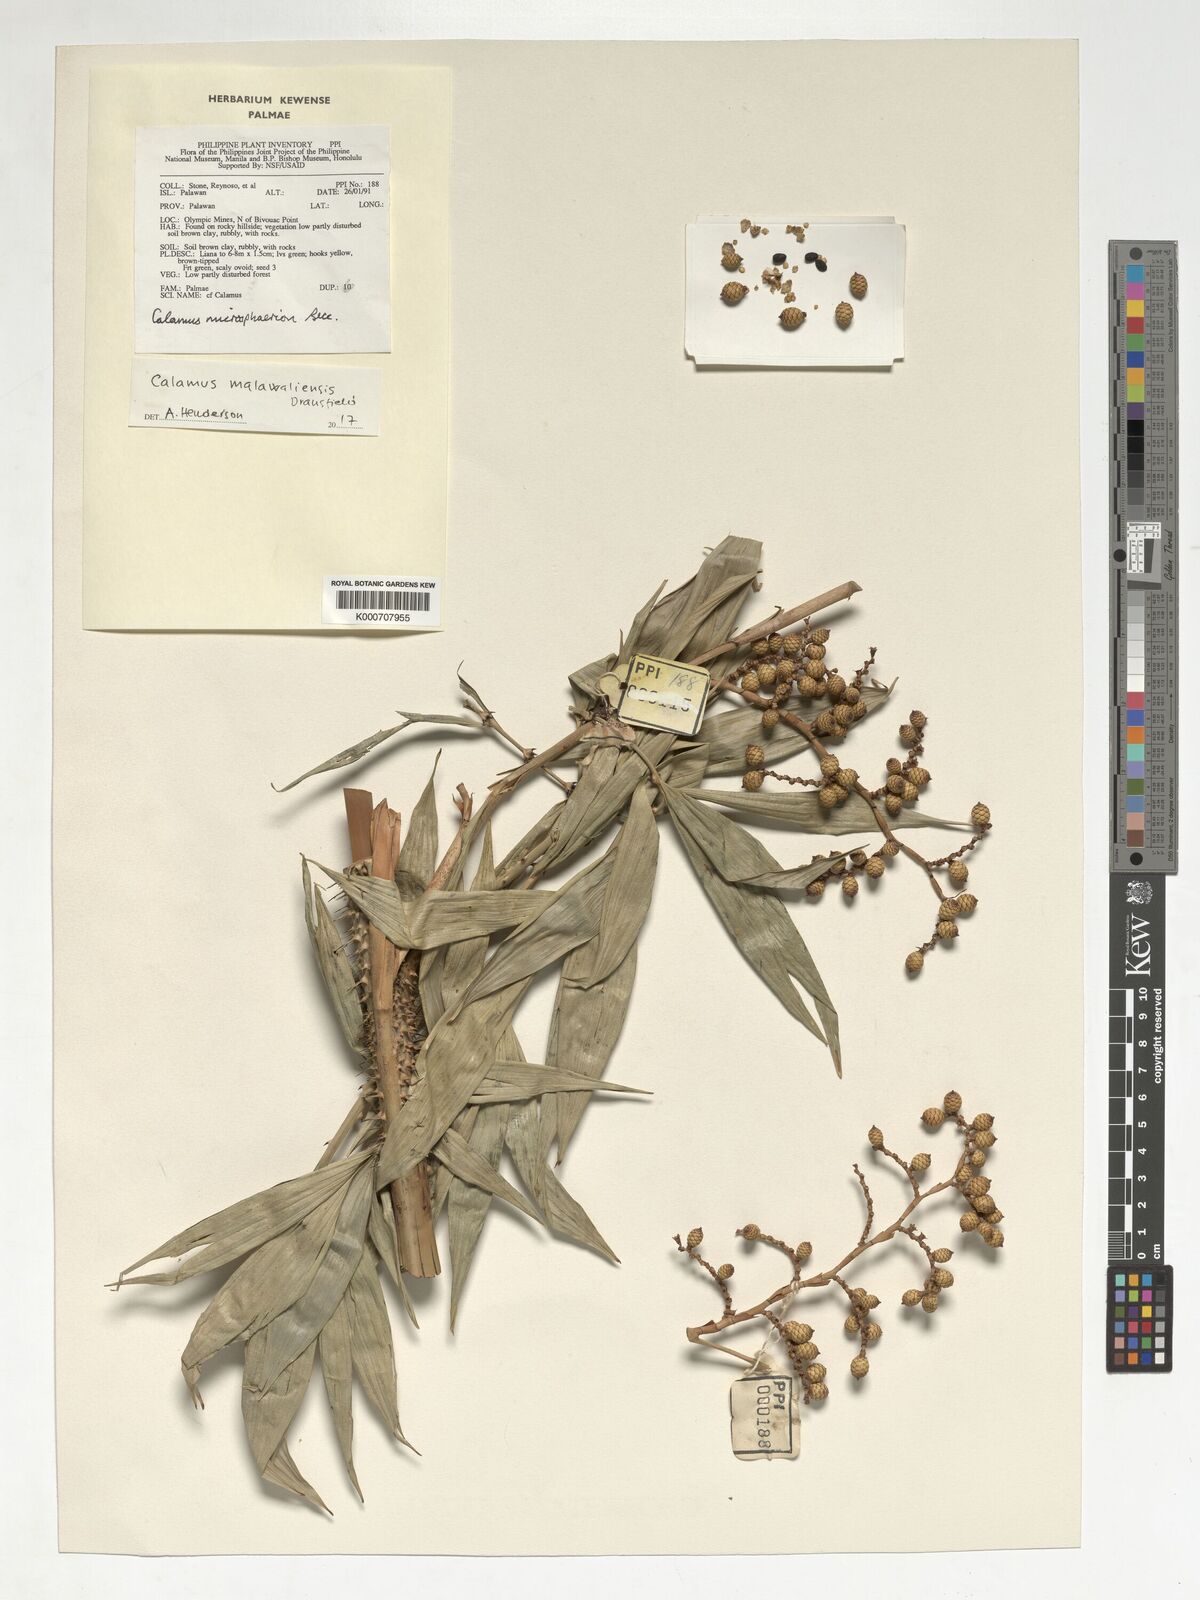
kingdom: Plantae
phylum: Tracheophyta
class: Liliopsida
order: Arecales
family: Arecaceae
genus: Calamus
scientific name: Calamus malawaliensis
